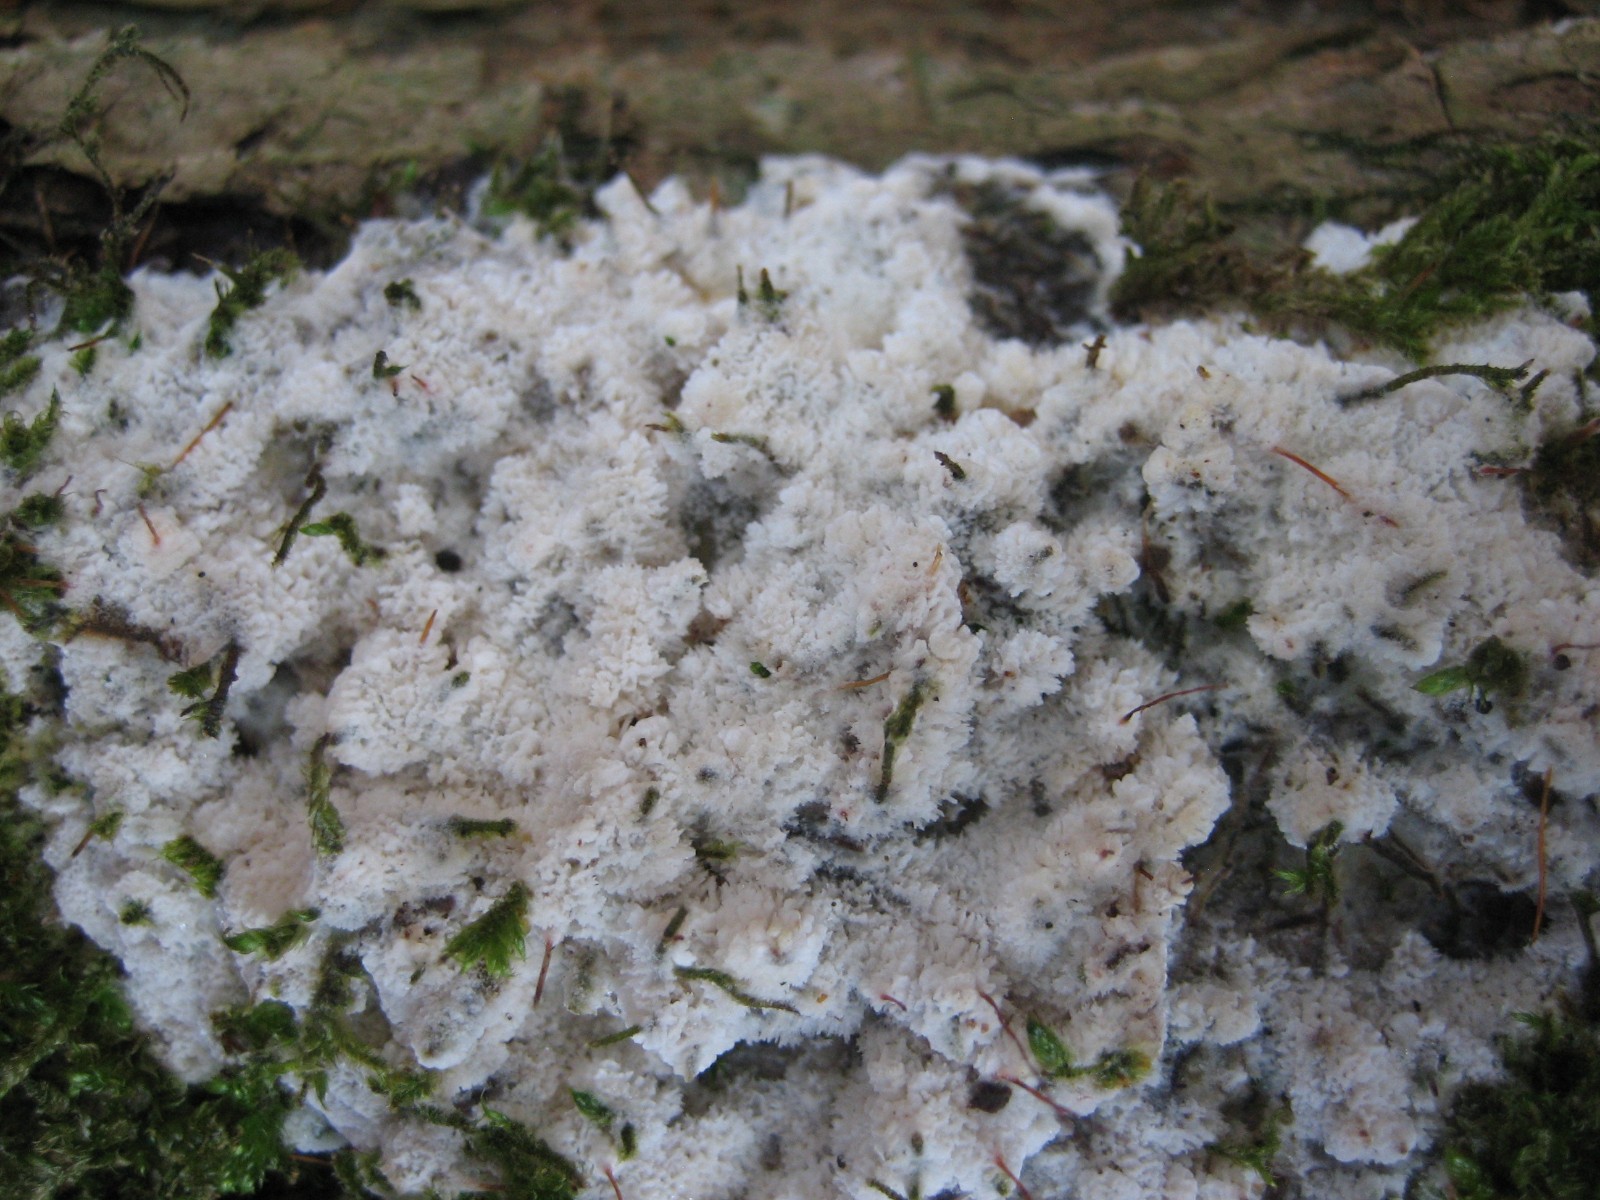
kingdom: Fungi
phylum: Basidiomycota
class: Agaricomycetes
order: Hymenochaetales
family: Schizoporaceae
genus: Xylodon
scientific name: Xylodon
